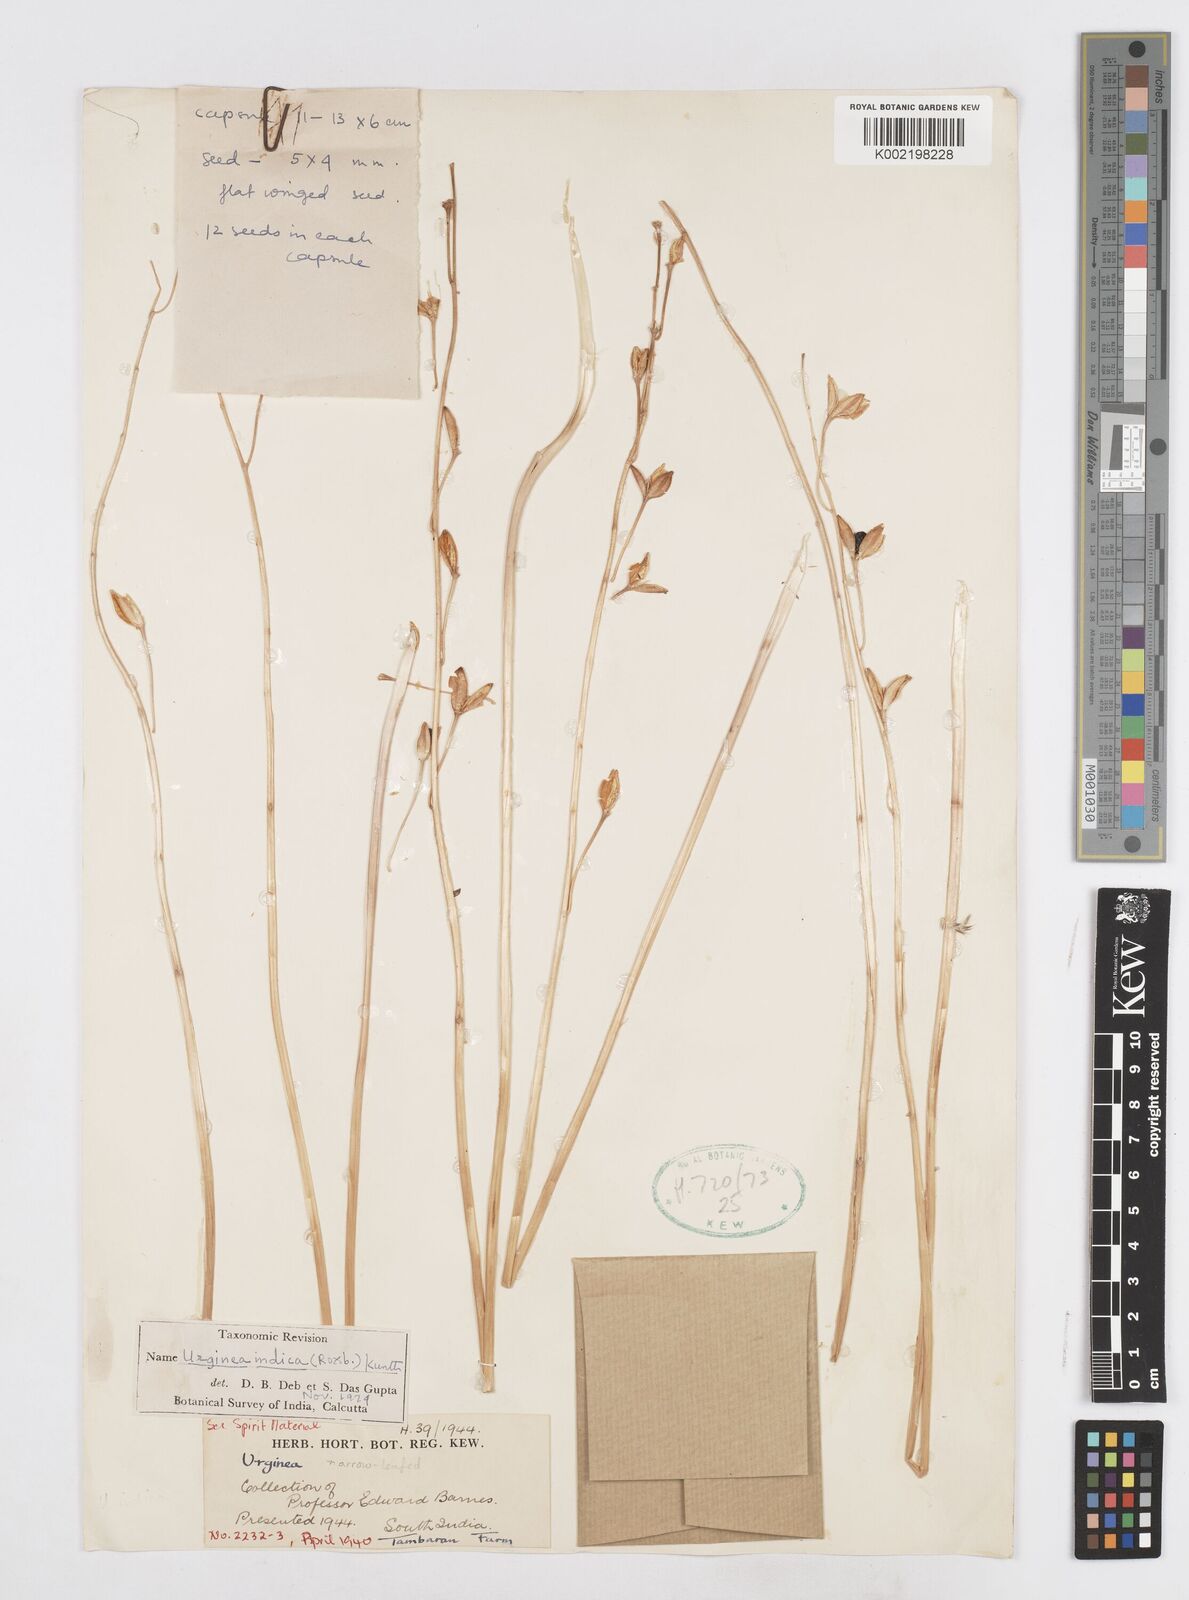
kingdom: Plantae
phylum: Tracheophyta
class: Liliopsida
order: Asparagales
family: Asparagaceae
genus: Drimia
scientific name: Drimia indica
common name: Indian-squill
